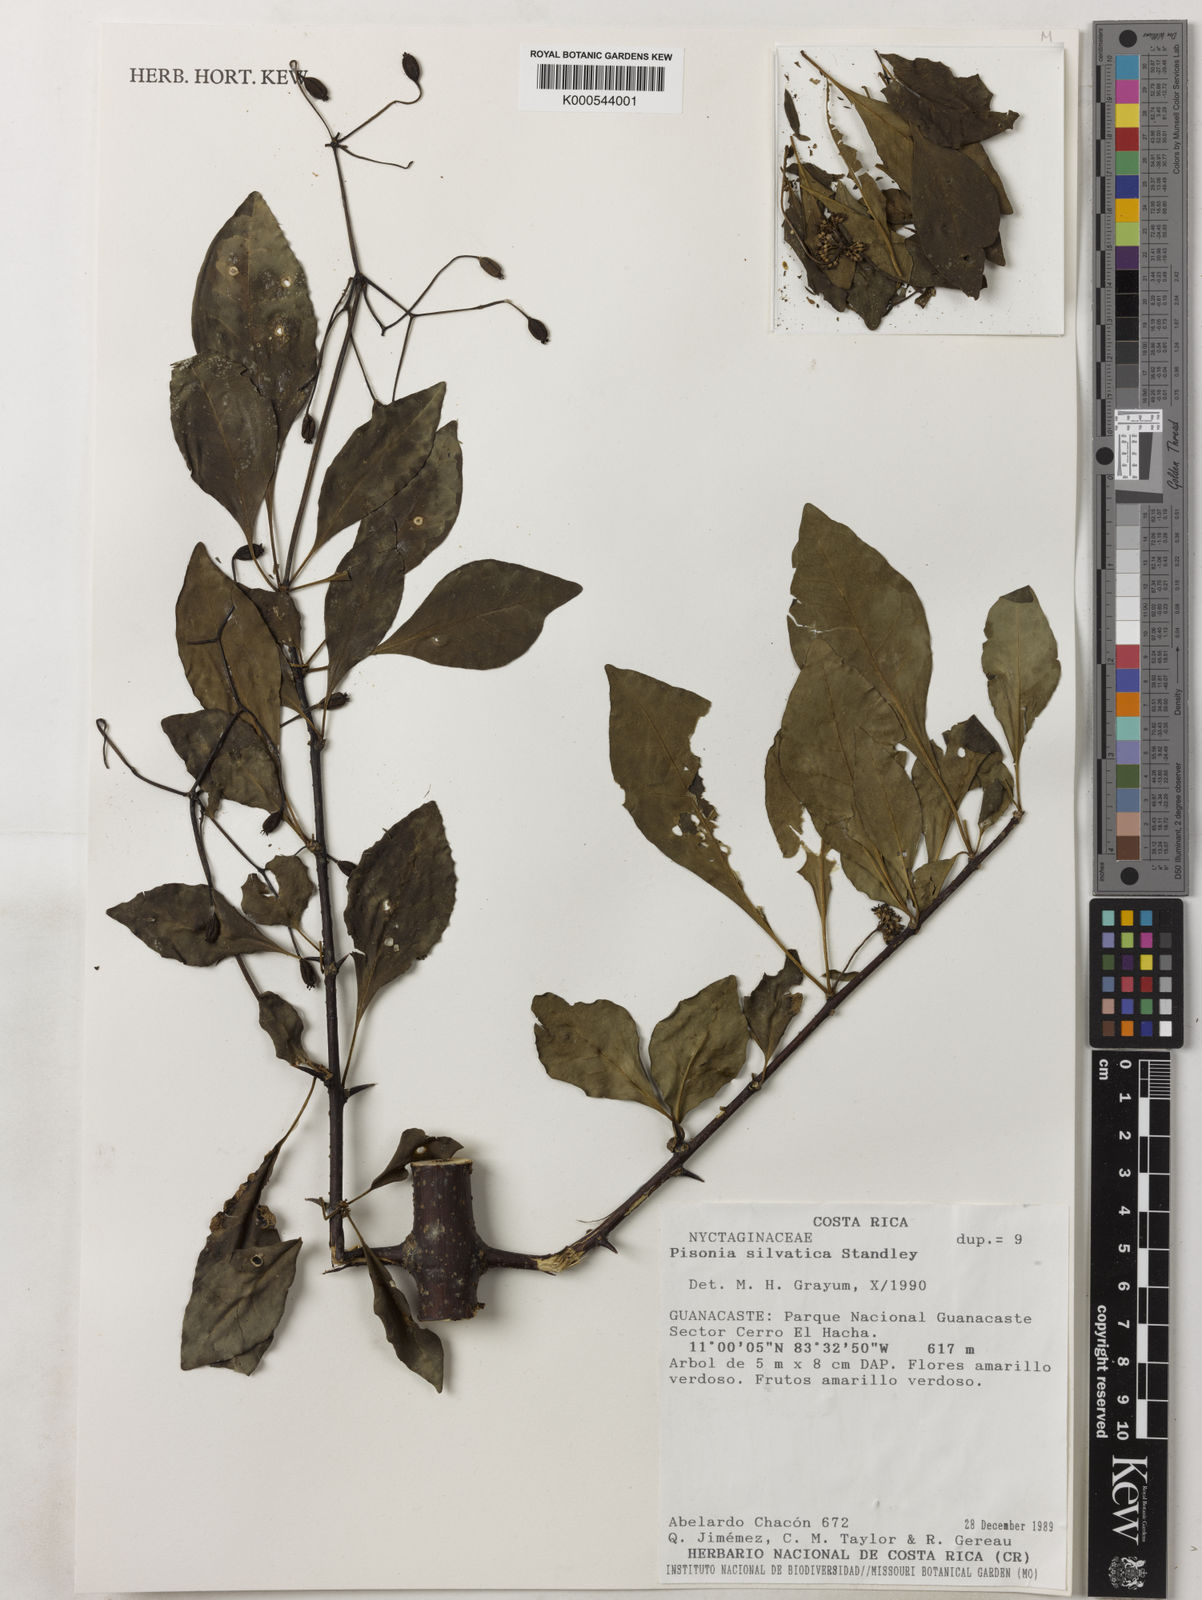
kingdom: Plantae
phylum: Tracheophyta
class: Magnoliopsida
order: Caryophyllales
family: Nyctaginaceae
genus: Pisonia
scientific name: Pisonia silvatica
